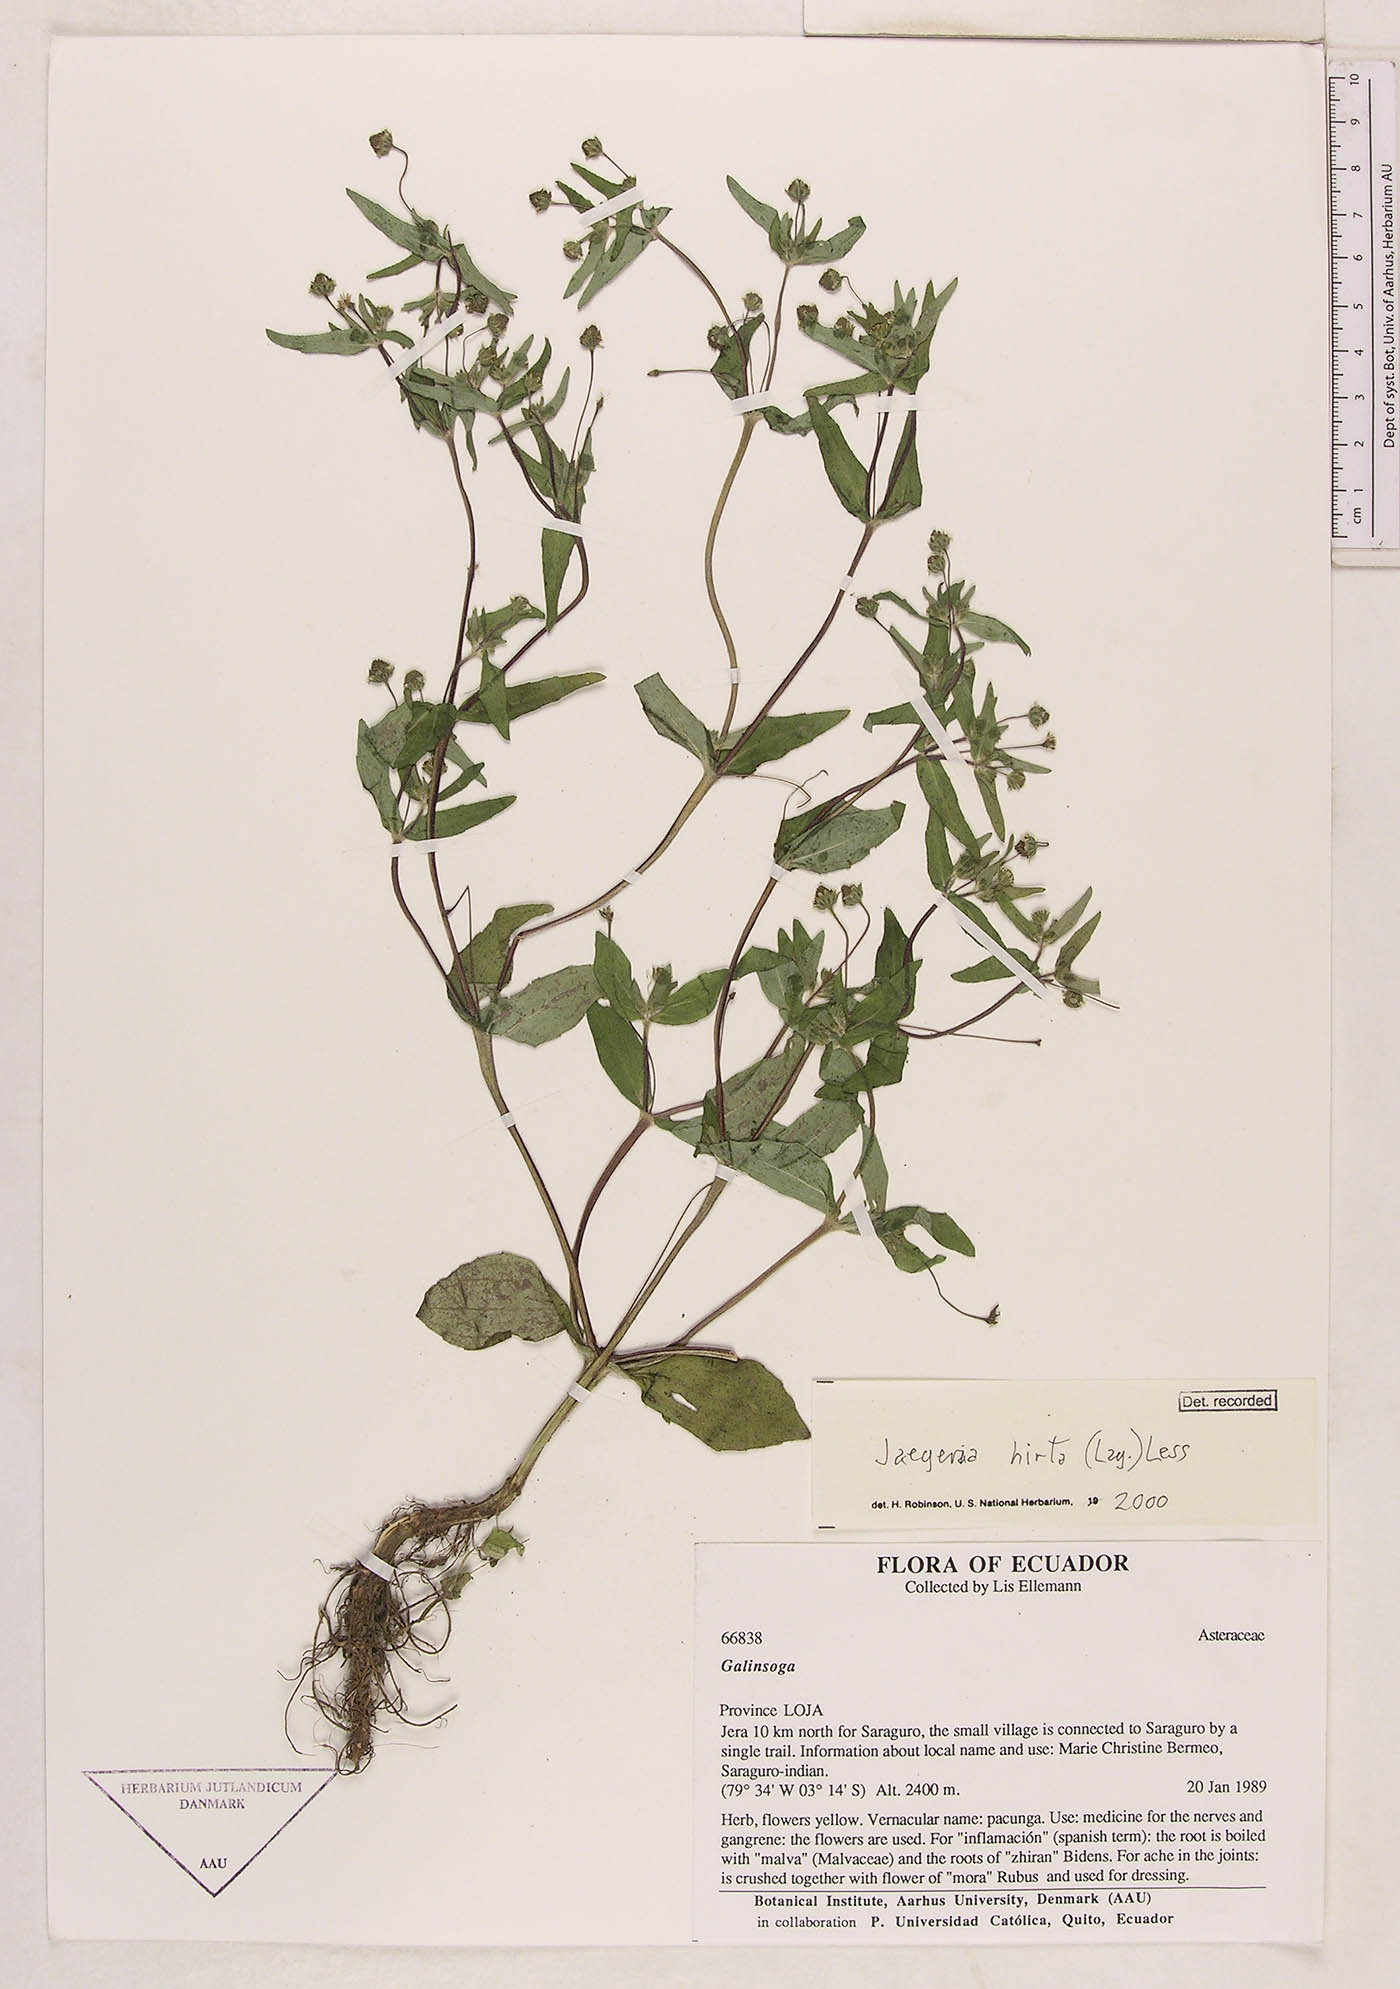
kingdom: Plantae
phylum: Tracheophyta
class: Magnoliopsida
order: Asterales
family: Asteraceae
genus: Jaegeria
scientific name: Jaegeria hirta
